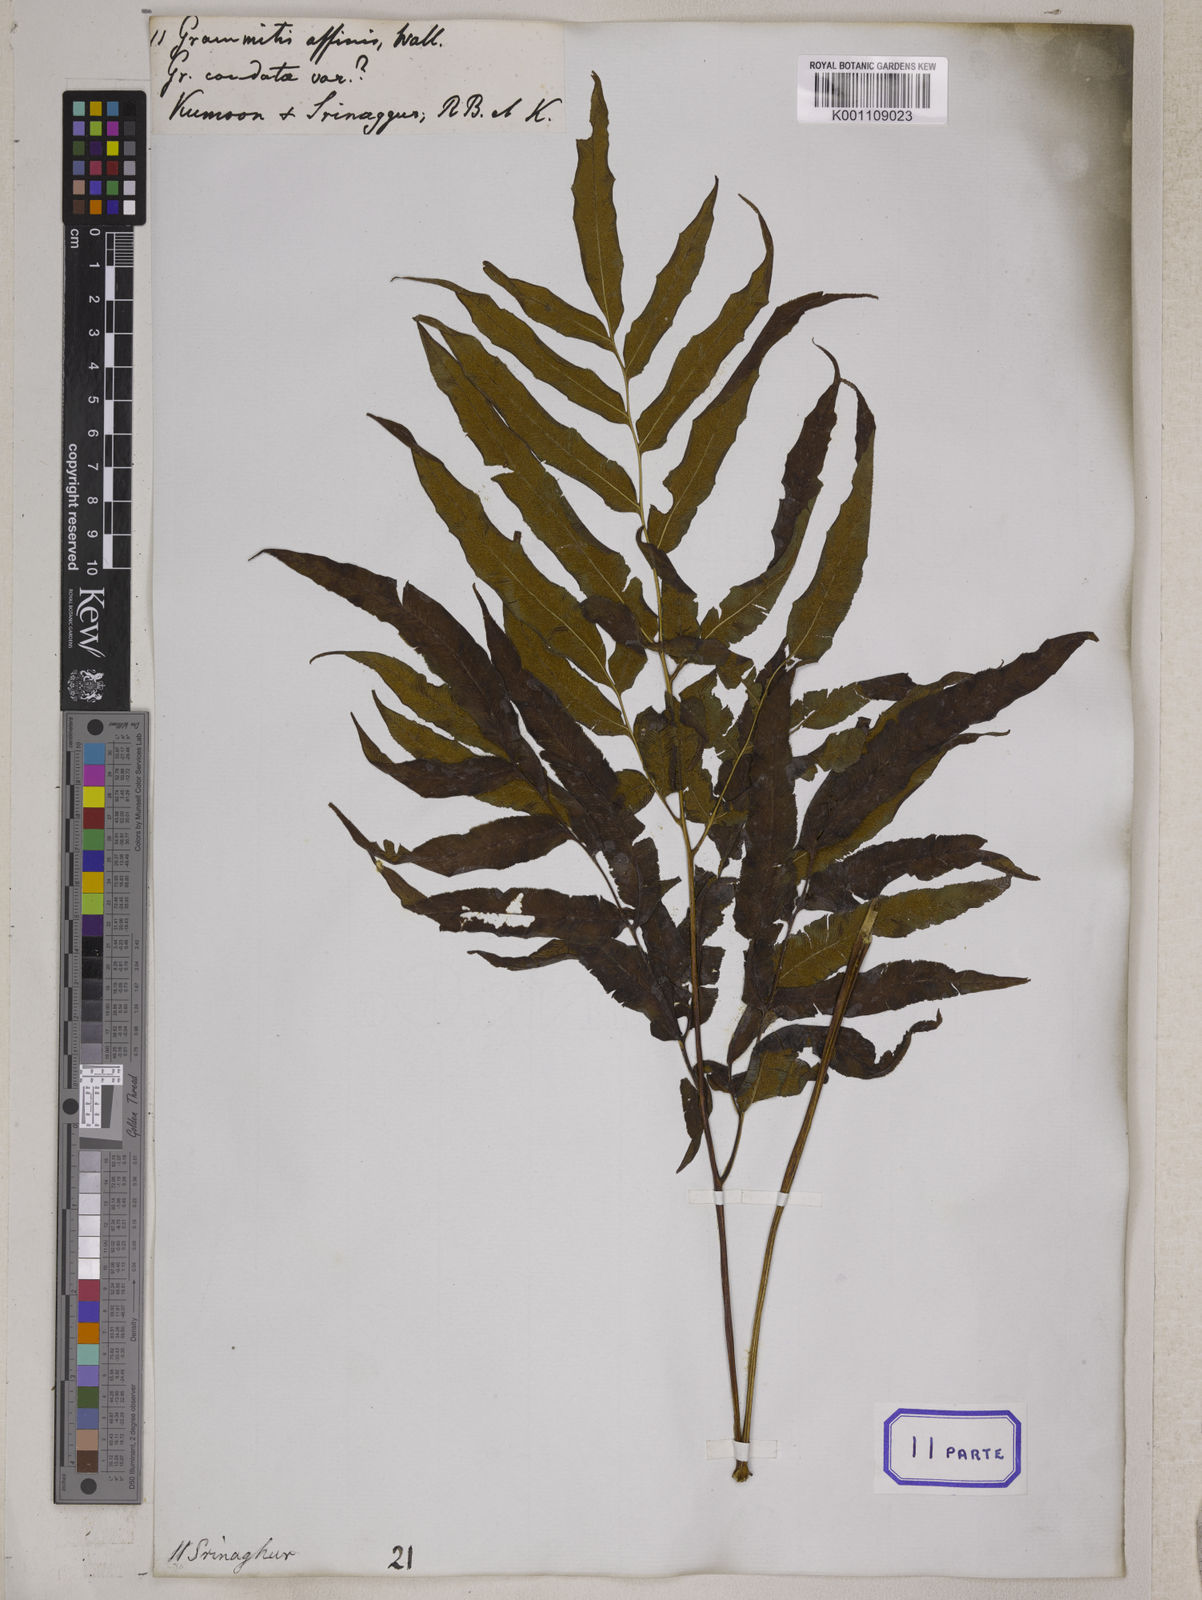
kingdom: Plantae
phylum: Tracheophyta
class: Polypodiopsida
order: Polypodiales
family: Pteridaceae
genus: Coniogramme
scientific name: Coniogramme affinis
